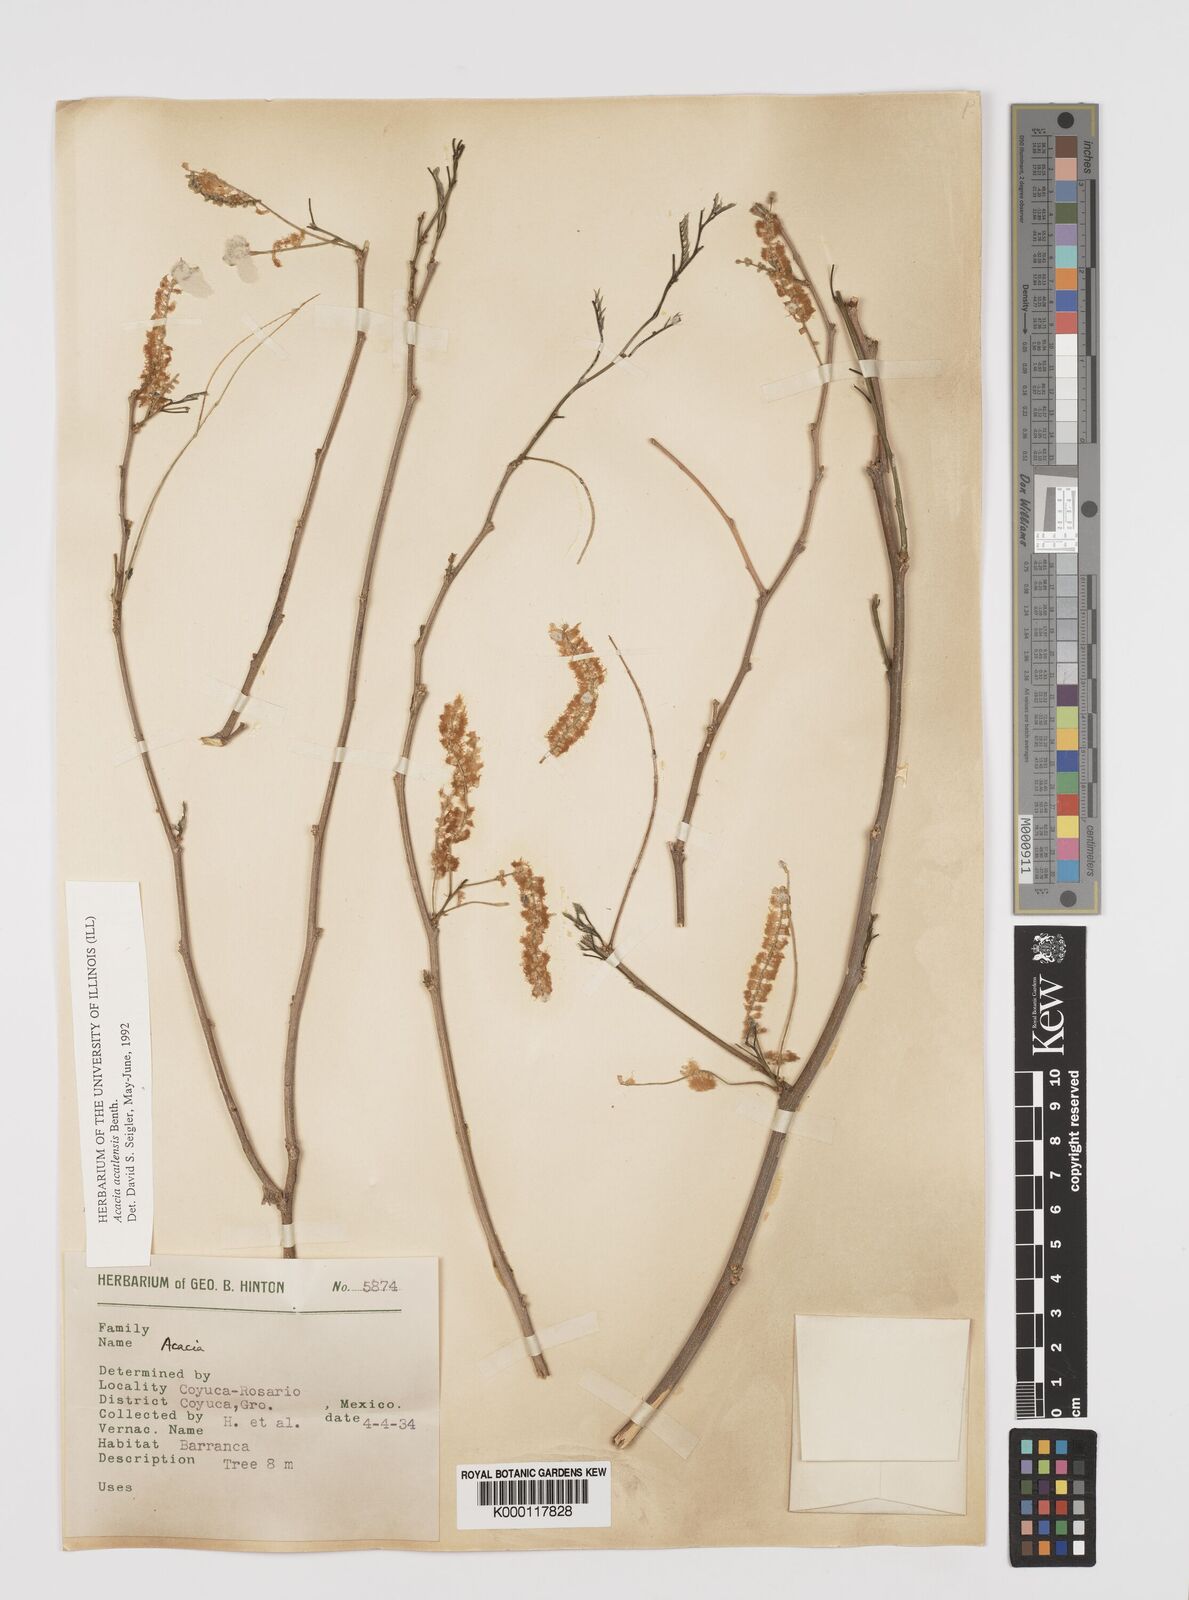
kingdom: Plantae
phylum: Tracheophyta
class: Magnoliopsida
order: Fabales
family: Fabaceae
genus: Mariosousa
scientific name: Mariosousa acatlensis
